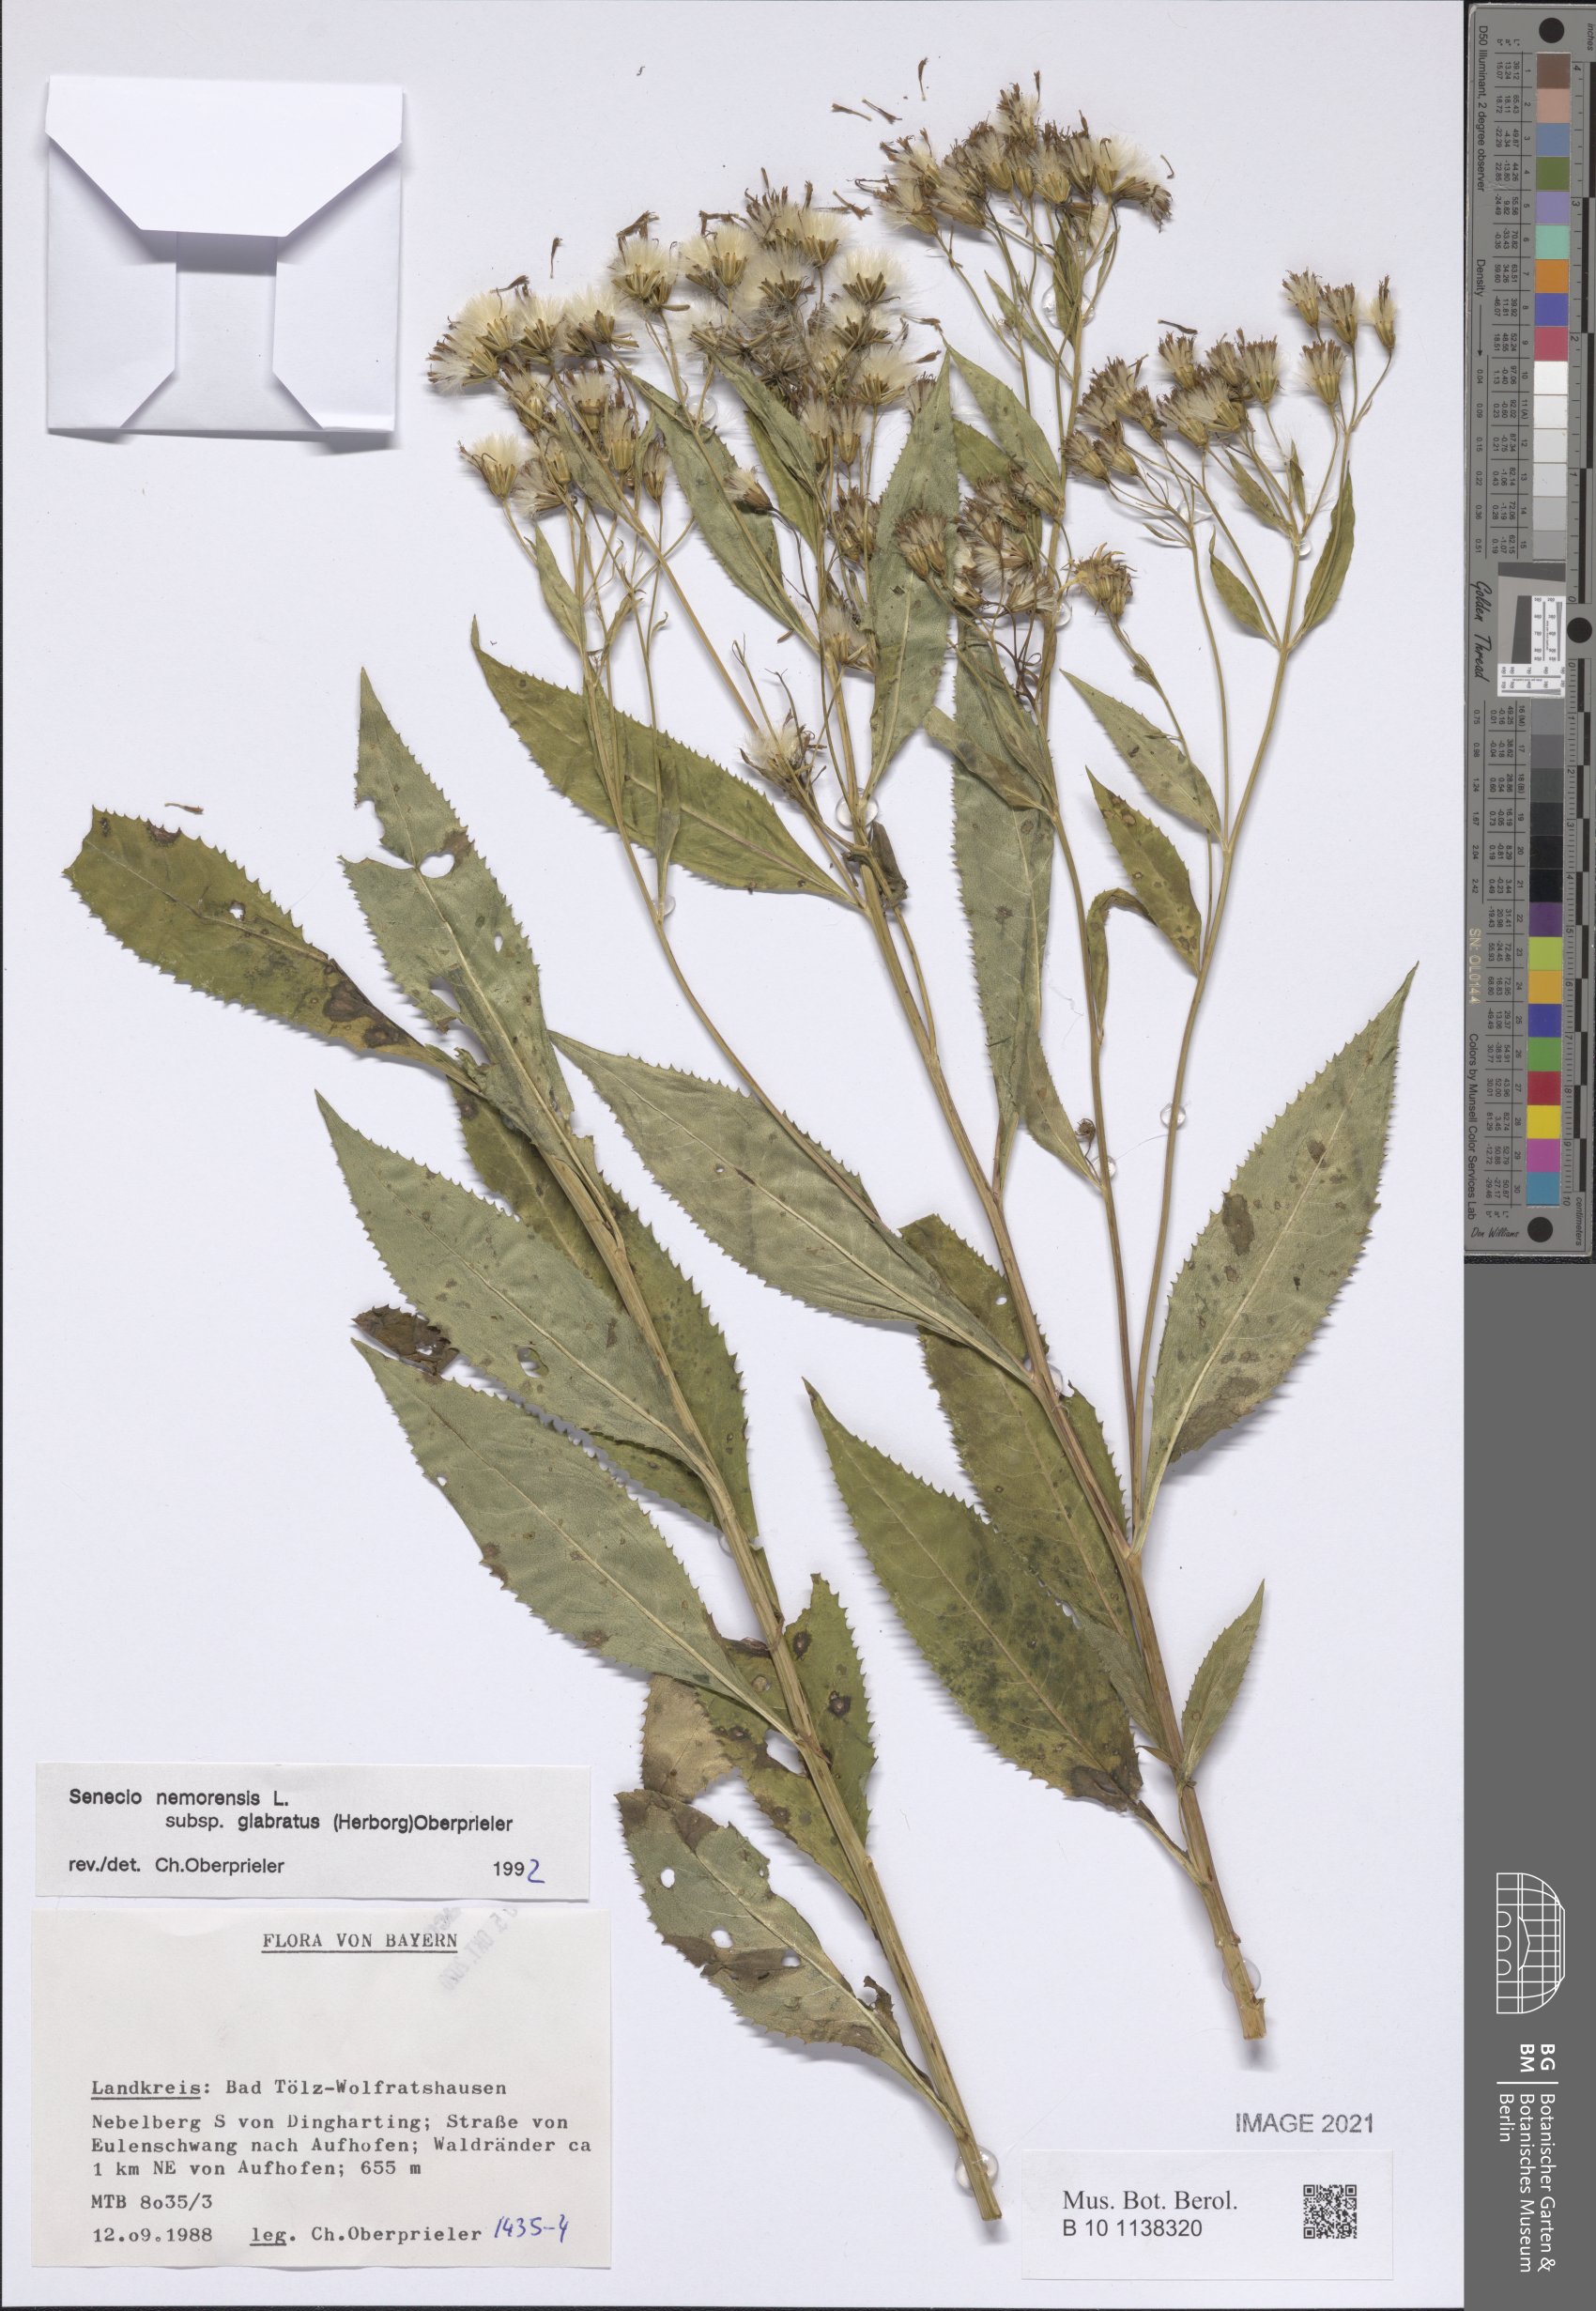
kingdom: Plantae
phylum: Tracheophyta
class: Magnoliopsida
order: Asterales
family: Asteraceae
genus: Senecio
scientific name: Senecio germanicus
